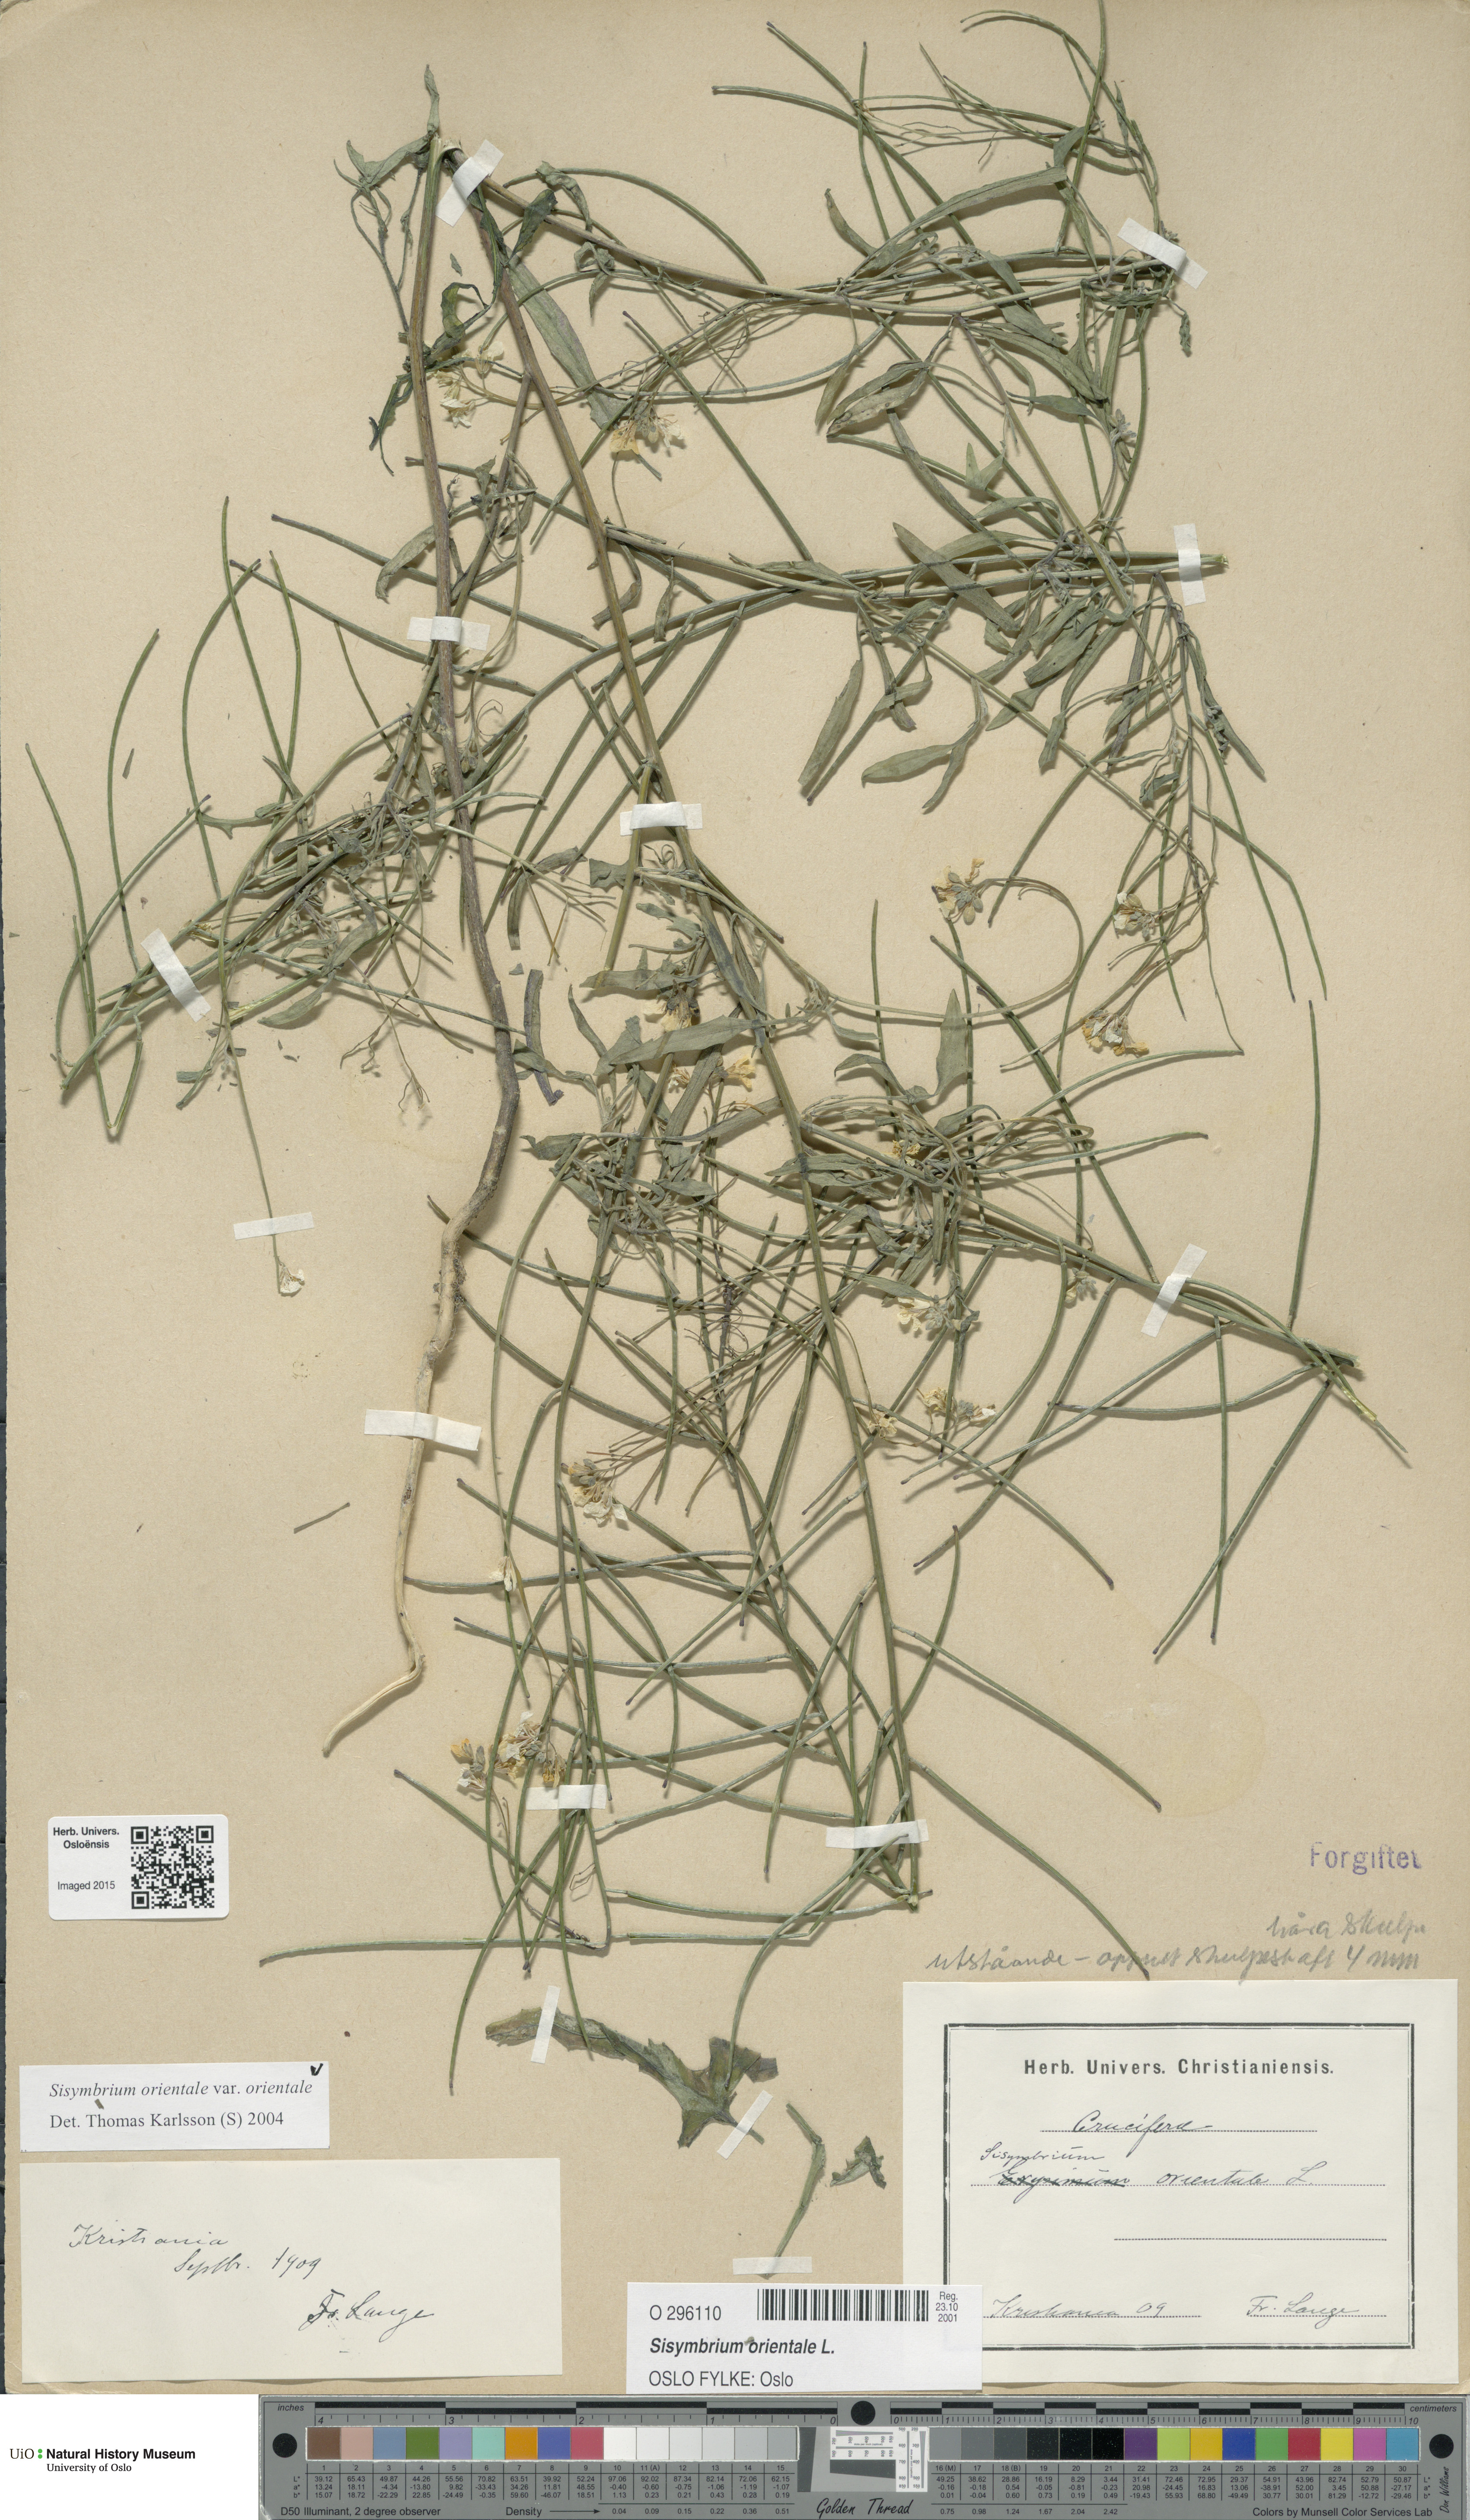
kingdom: Plantae
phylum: Tracheophyta
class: Magnoliopsida
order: Brassicales
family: Brassicaceae
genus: Sisymbrium
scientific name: Sisymbrium orientale
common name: Eastern rocket
